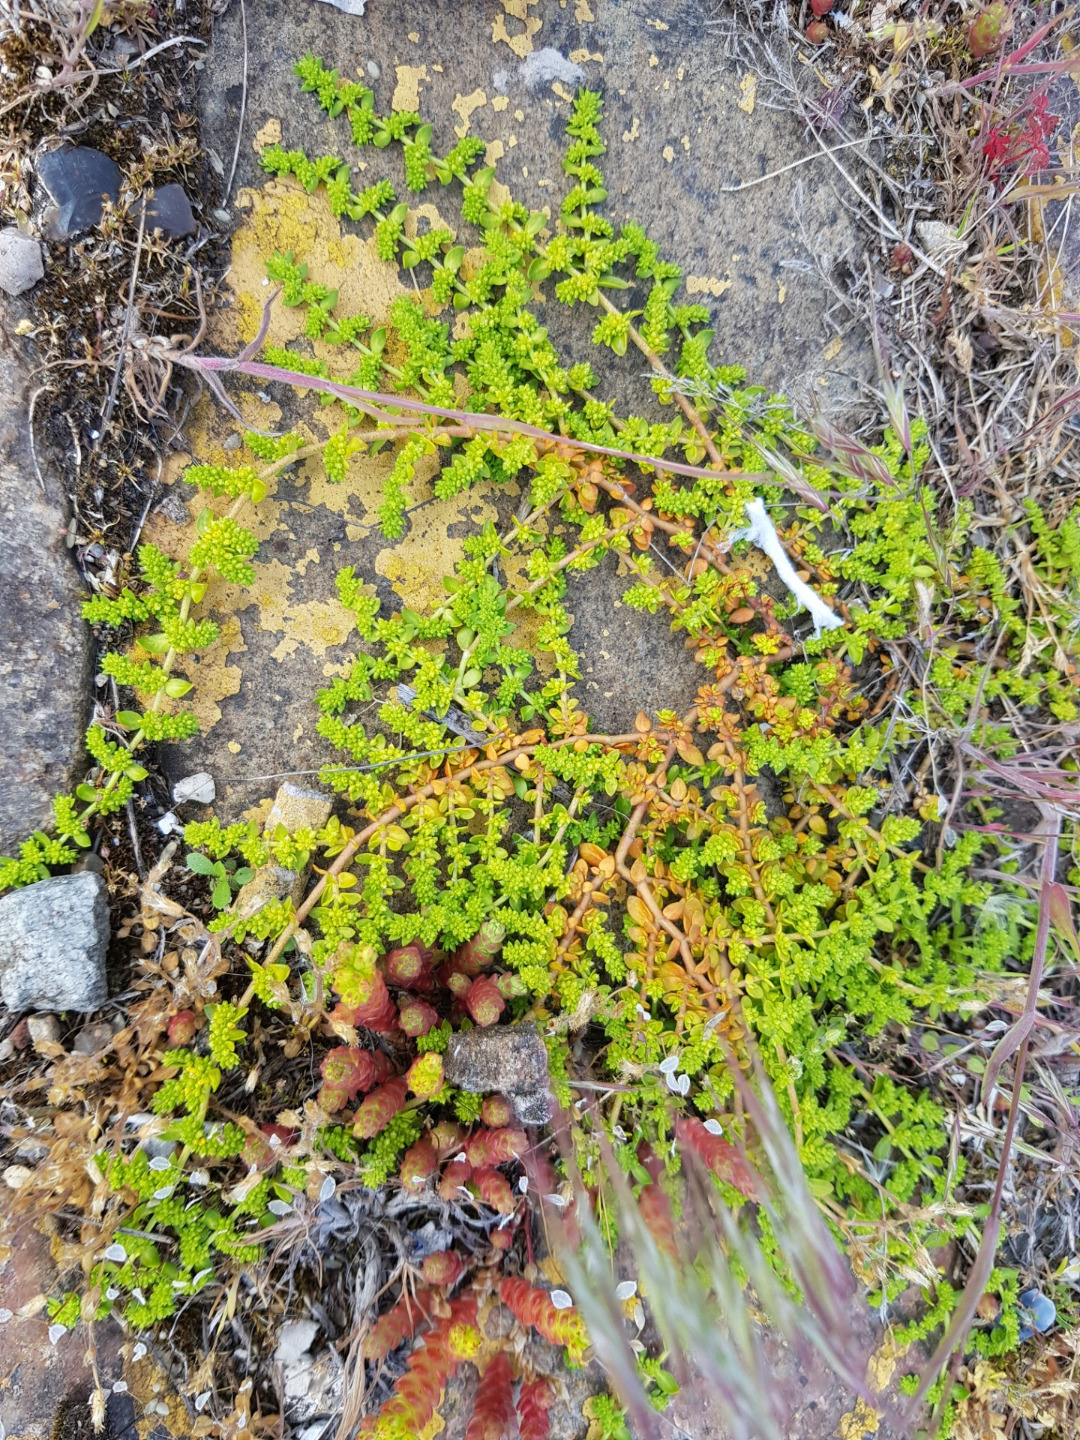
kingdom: Plantae
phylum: Tracheophyta
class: Magnoliopsida
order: Caryophyllales
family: Caryophyllaceae
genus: Herniaria
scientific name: Herniaria glabra
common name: Brudurt
